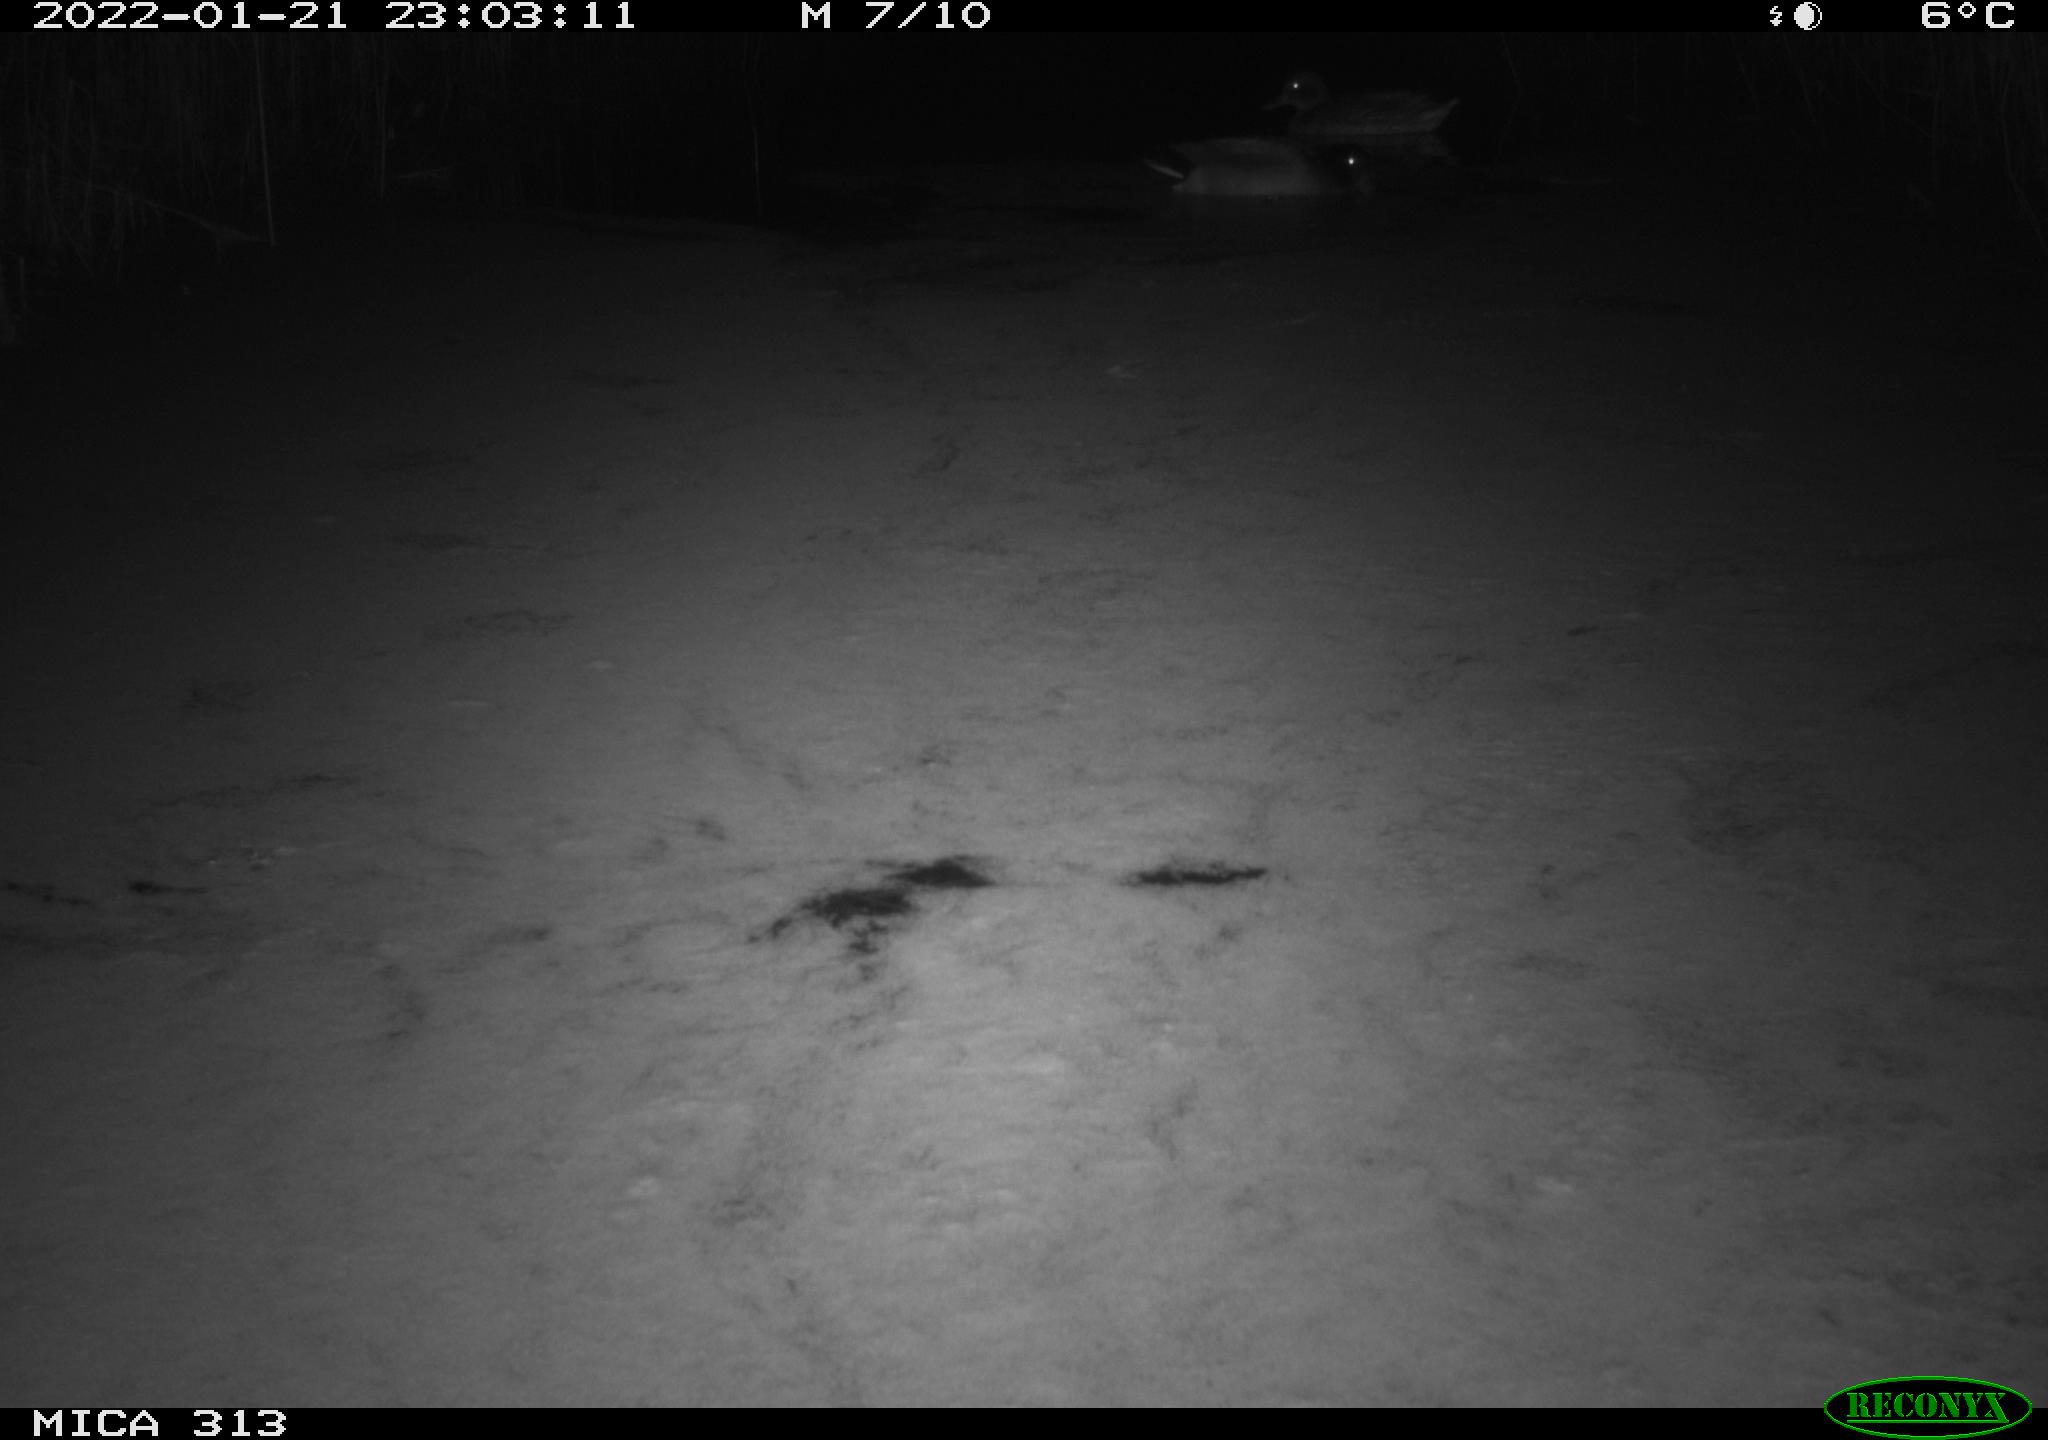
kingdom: Animalia
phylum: Chordata
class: Aves
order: Anseriformes
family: Anatidae
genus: Anas
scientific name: Anas platyrhynchos
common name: Mallard
